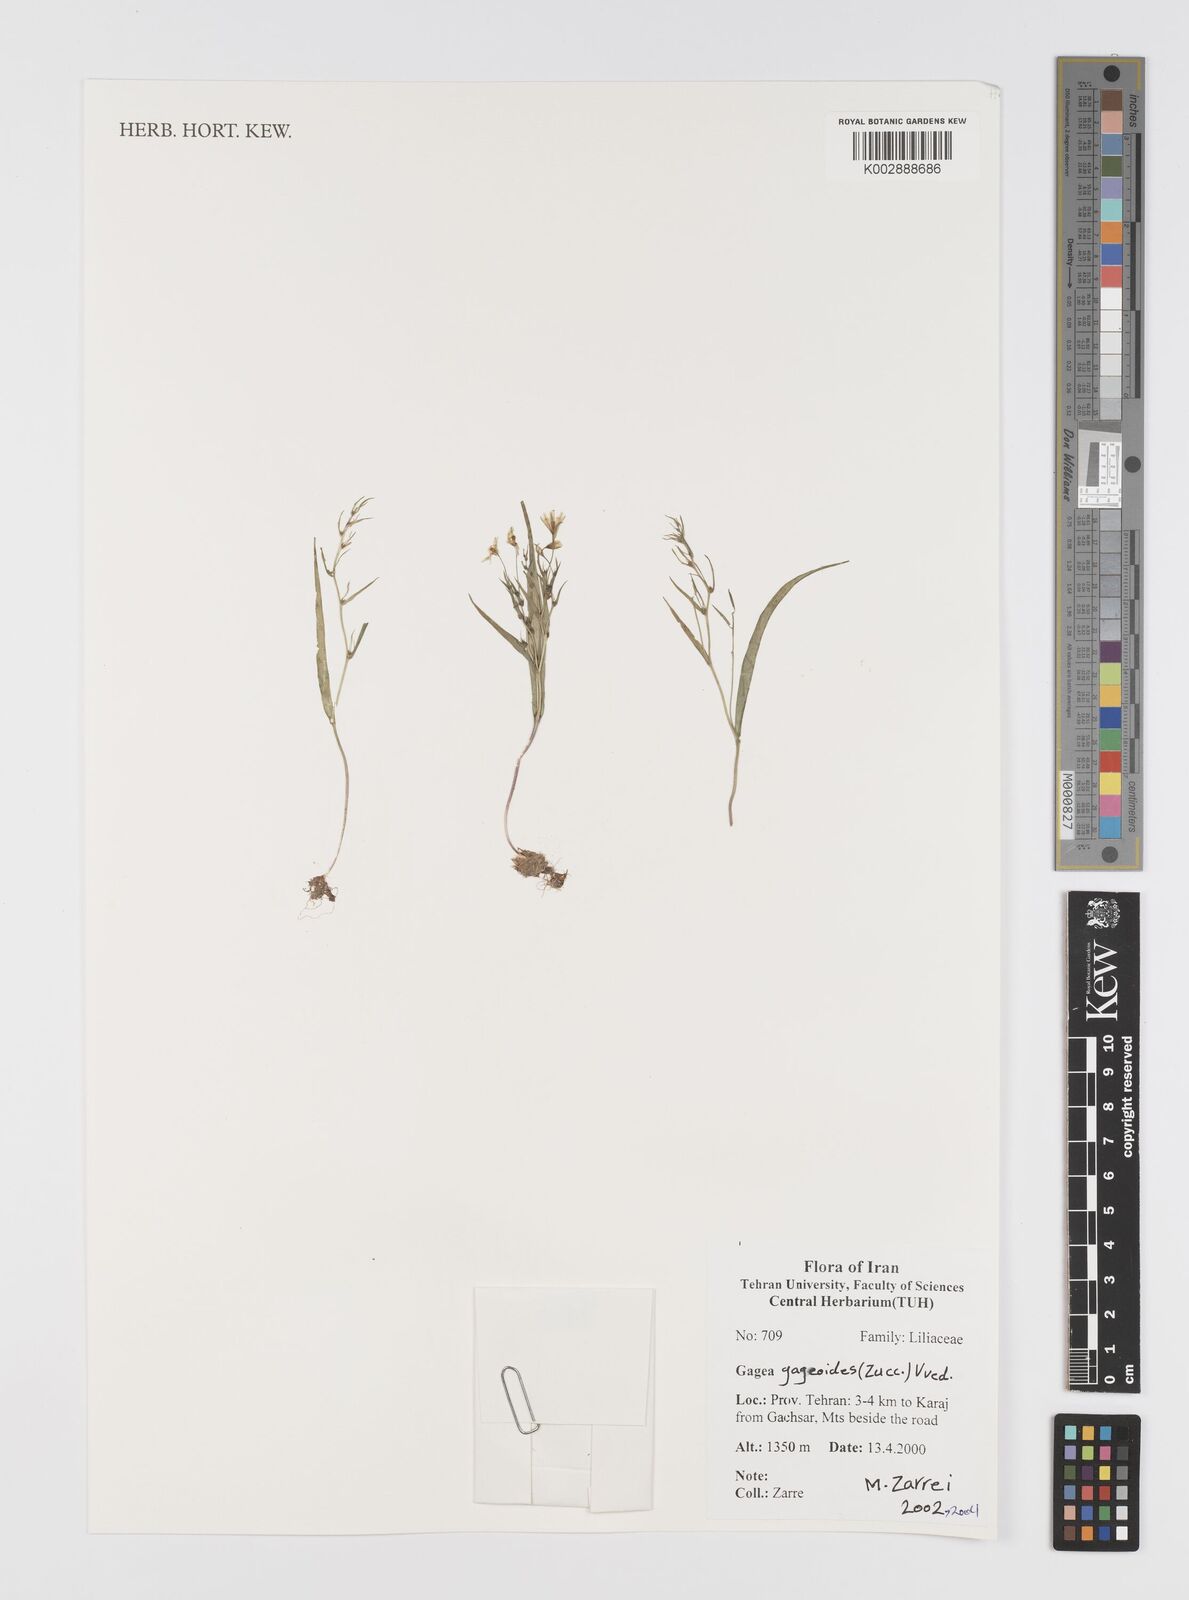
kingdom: Plantae
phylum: Tracheophyta
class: Liliopsida
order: Liliales
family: Liliaceae
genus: Gagea
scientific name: Gagea gageoides
